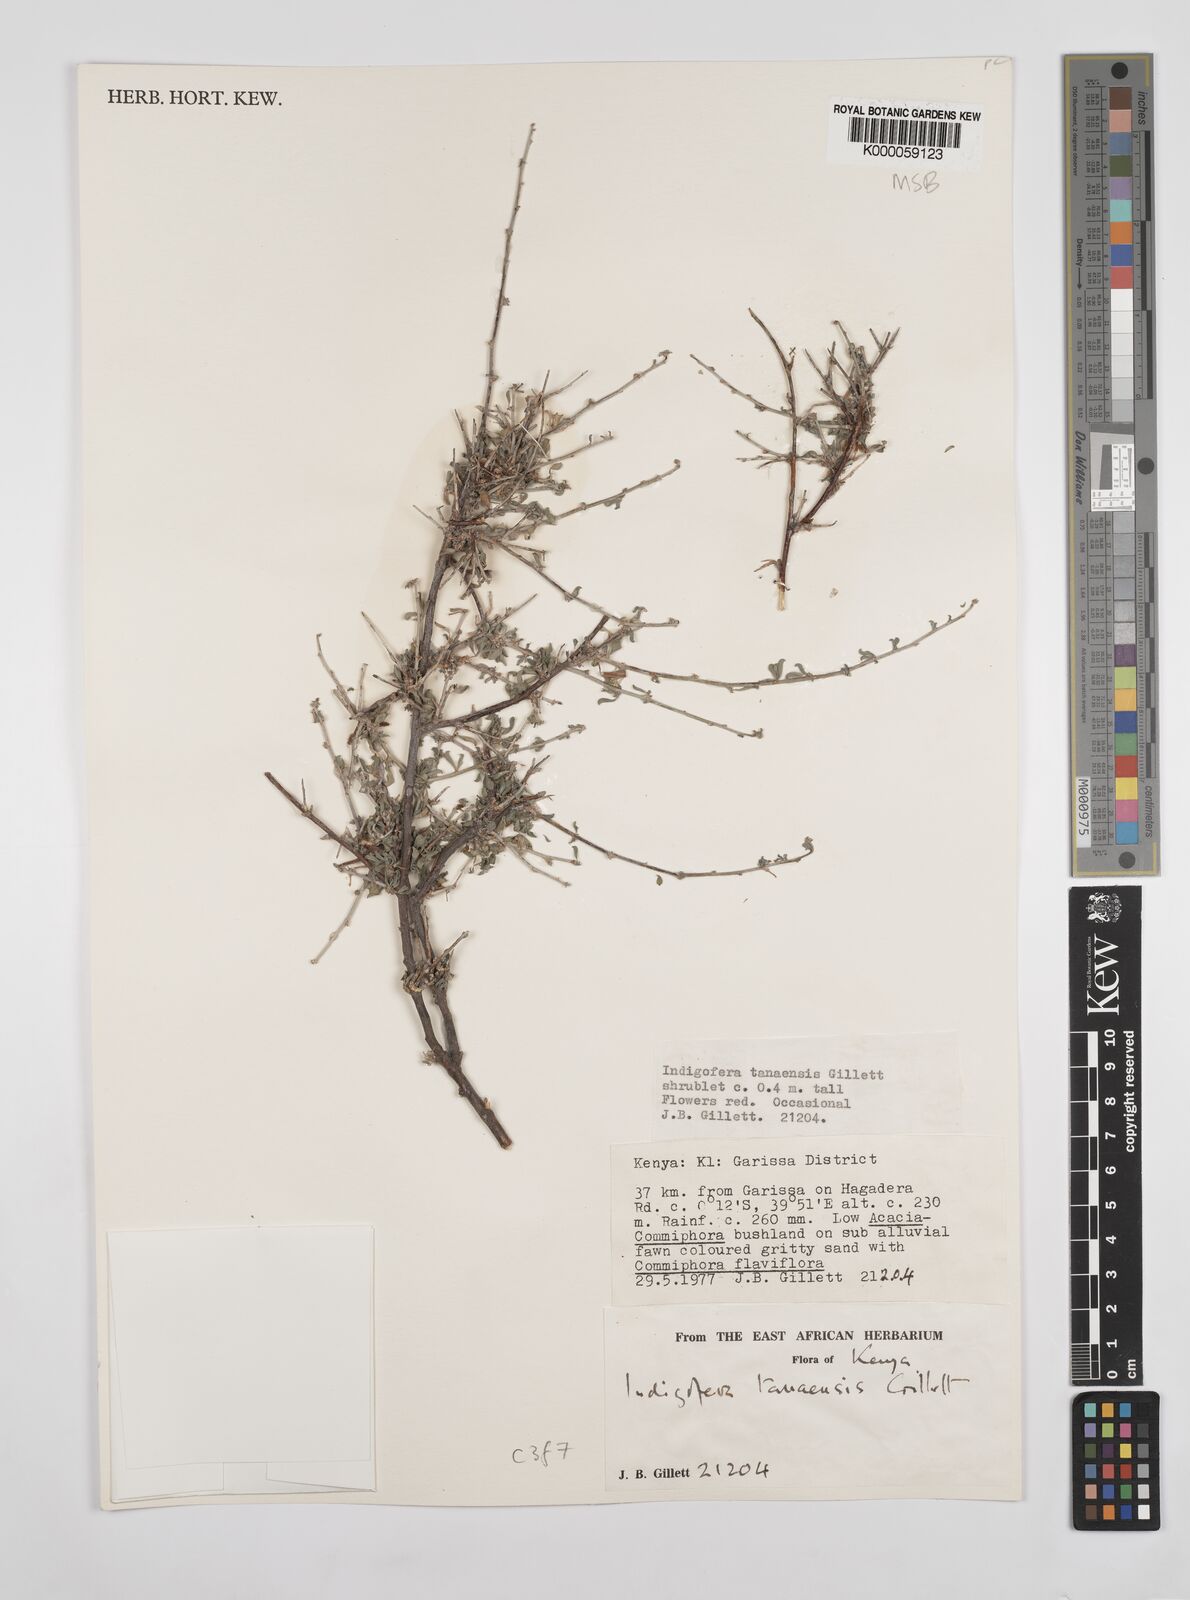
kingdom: Plantae
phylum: Tracheophyta
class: Magnoliopsida
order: Fabales
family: Fabaceae
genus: Indigofera
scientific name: Indigofera tanaensis
